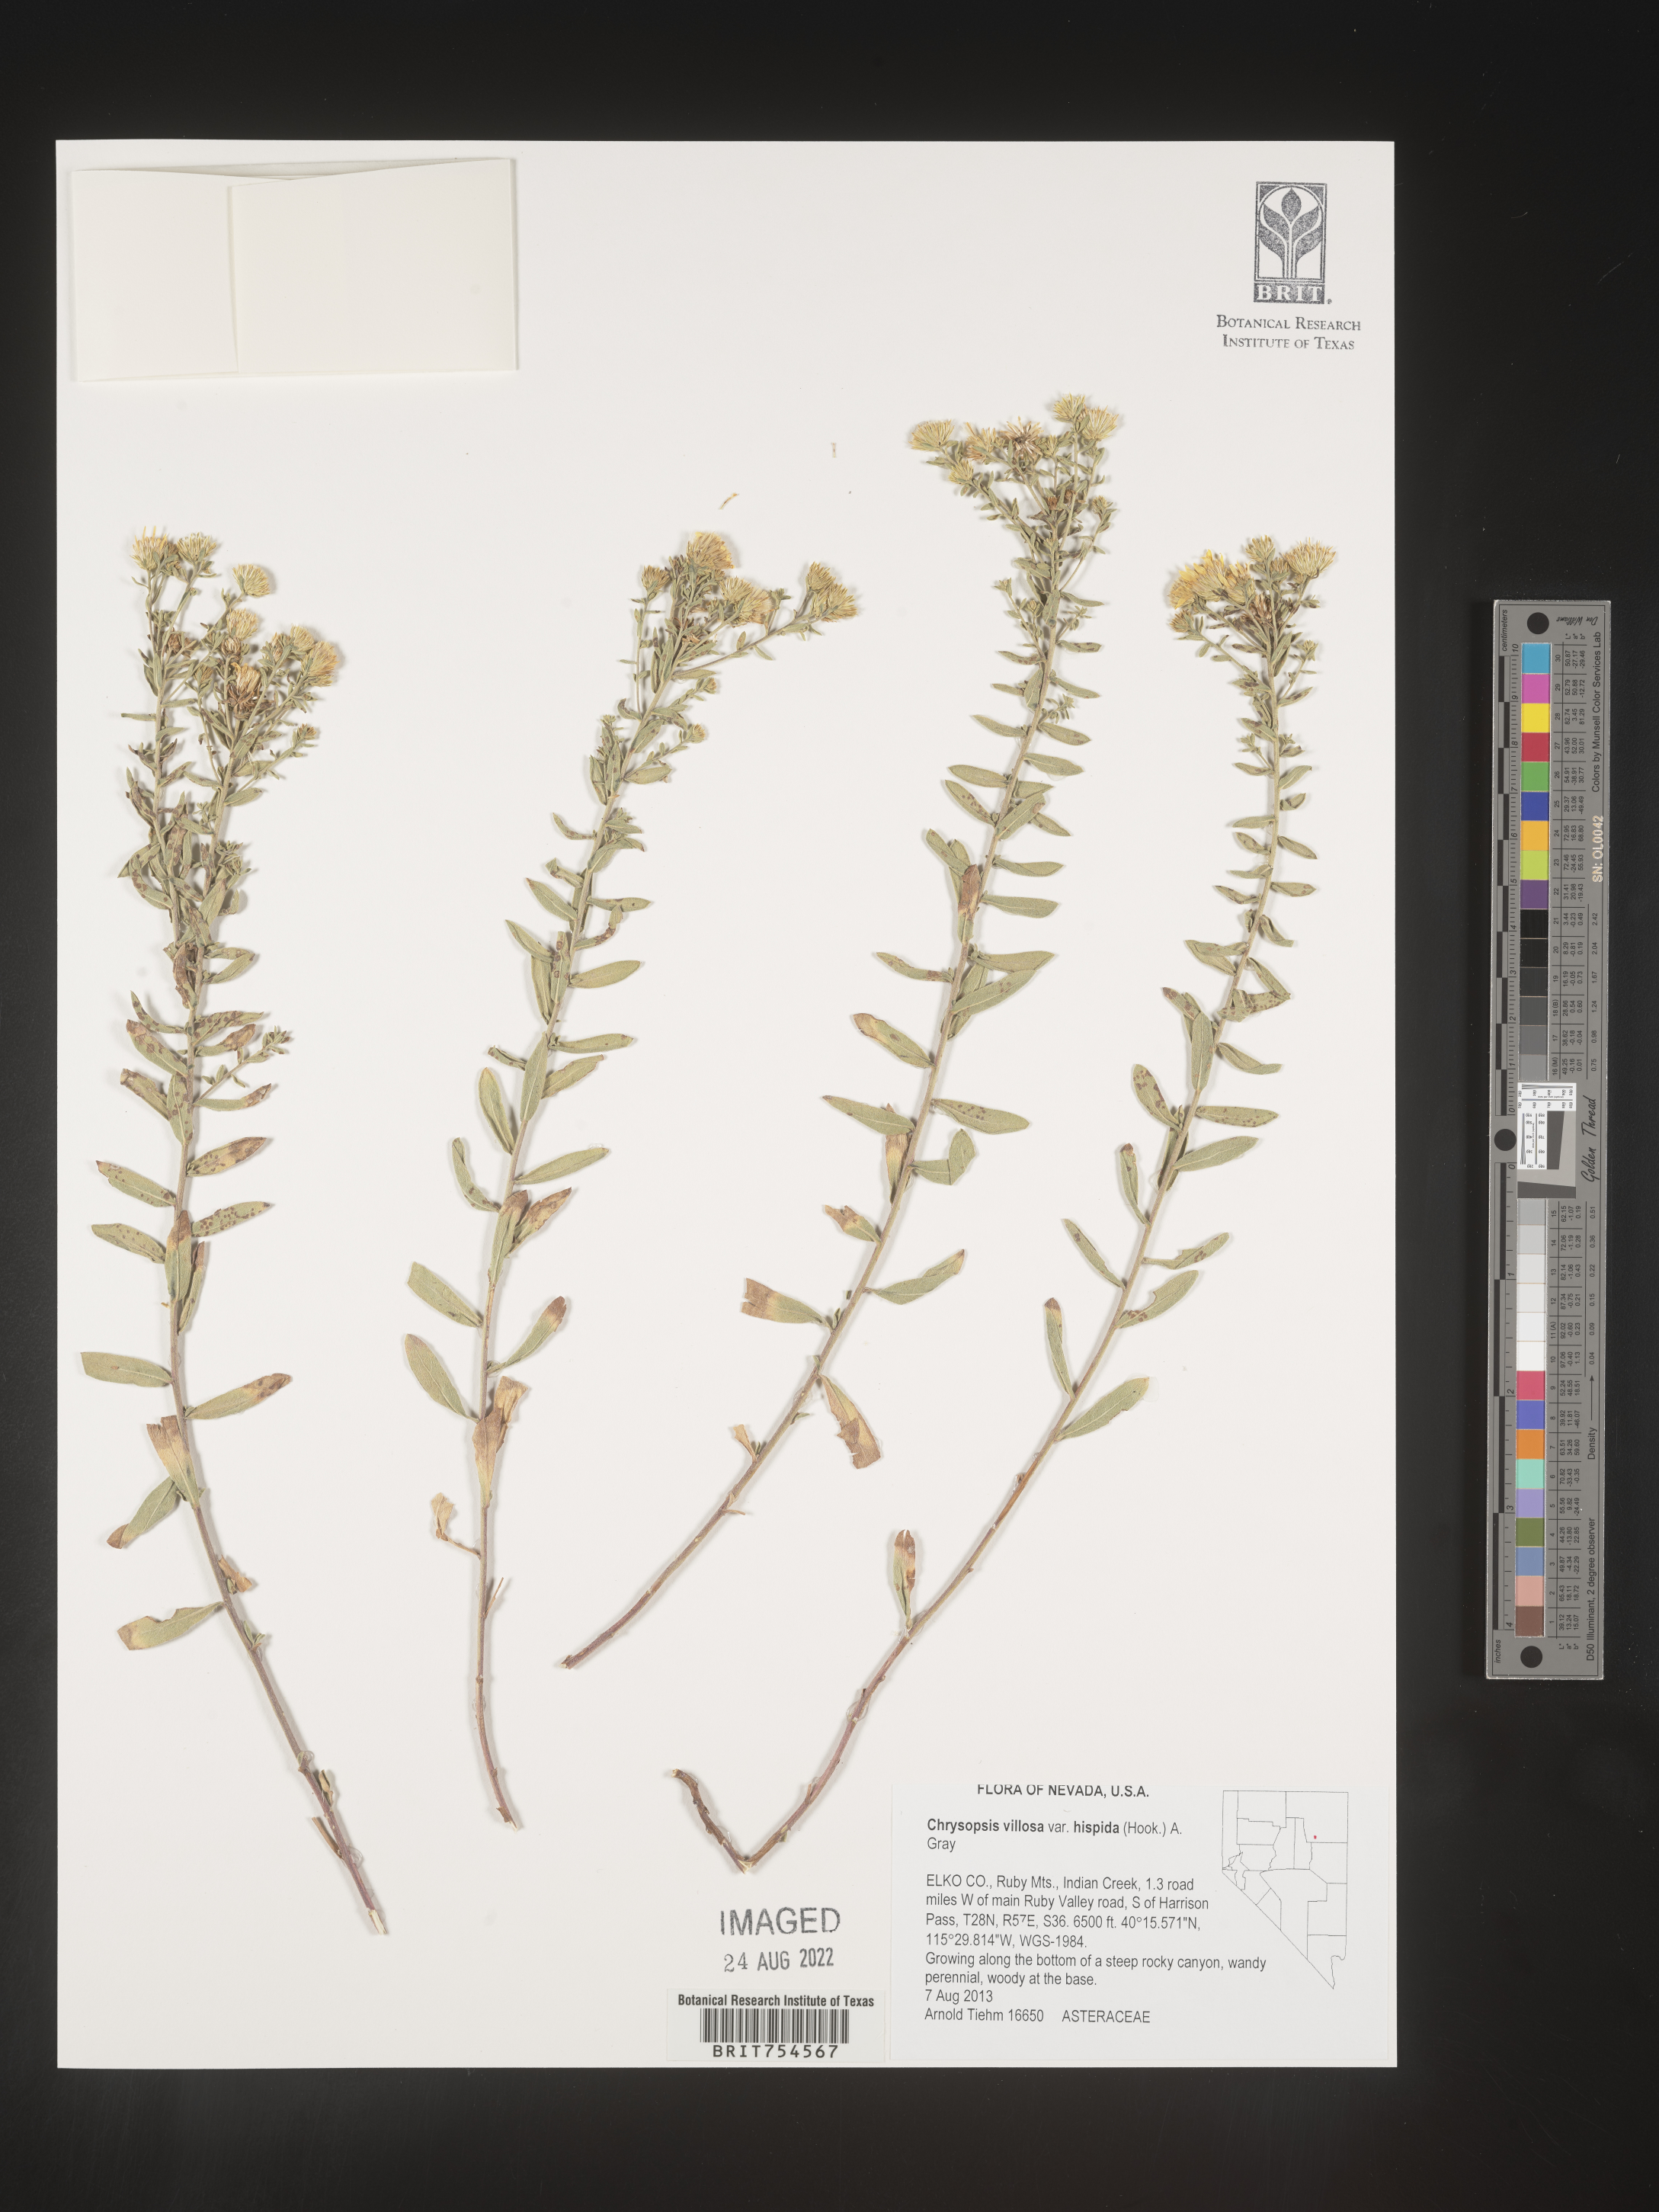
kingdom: Plantae
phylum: Tracheophyta
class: Magnoliopsida
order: Asterales
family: Asteraceae
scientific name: Asteraceae
